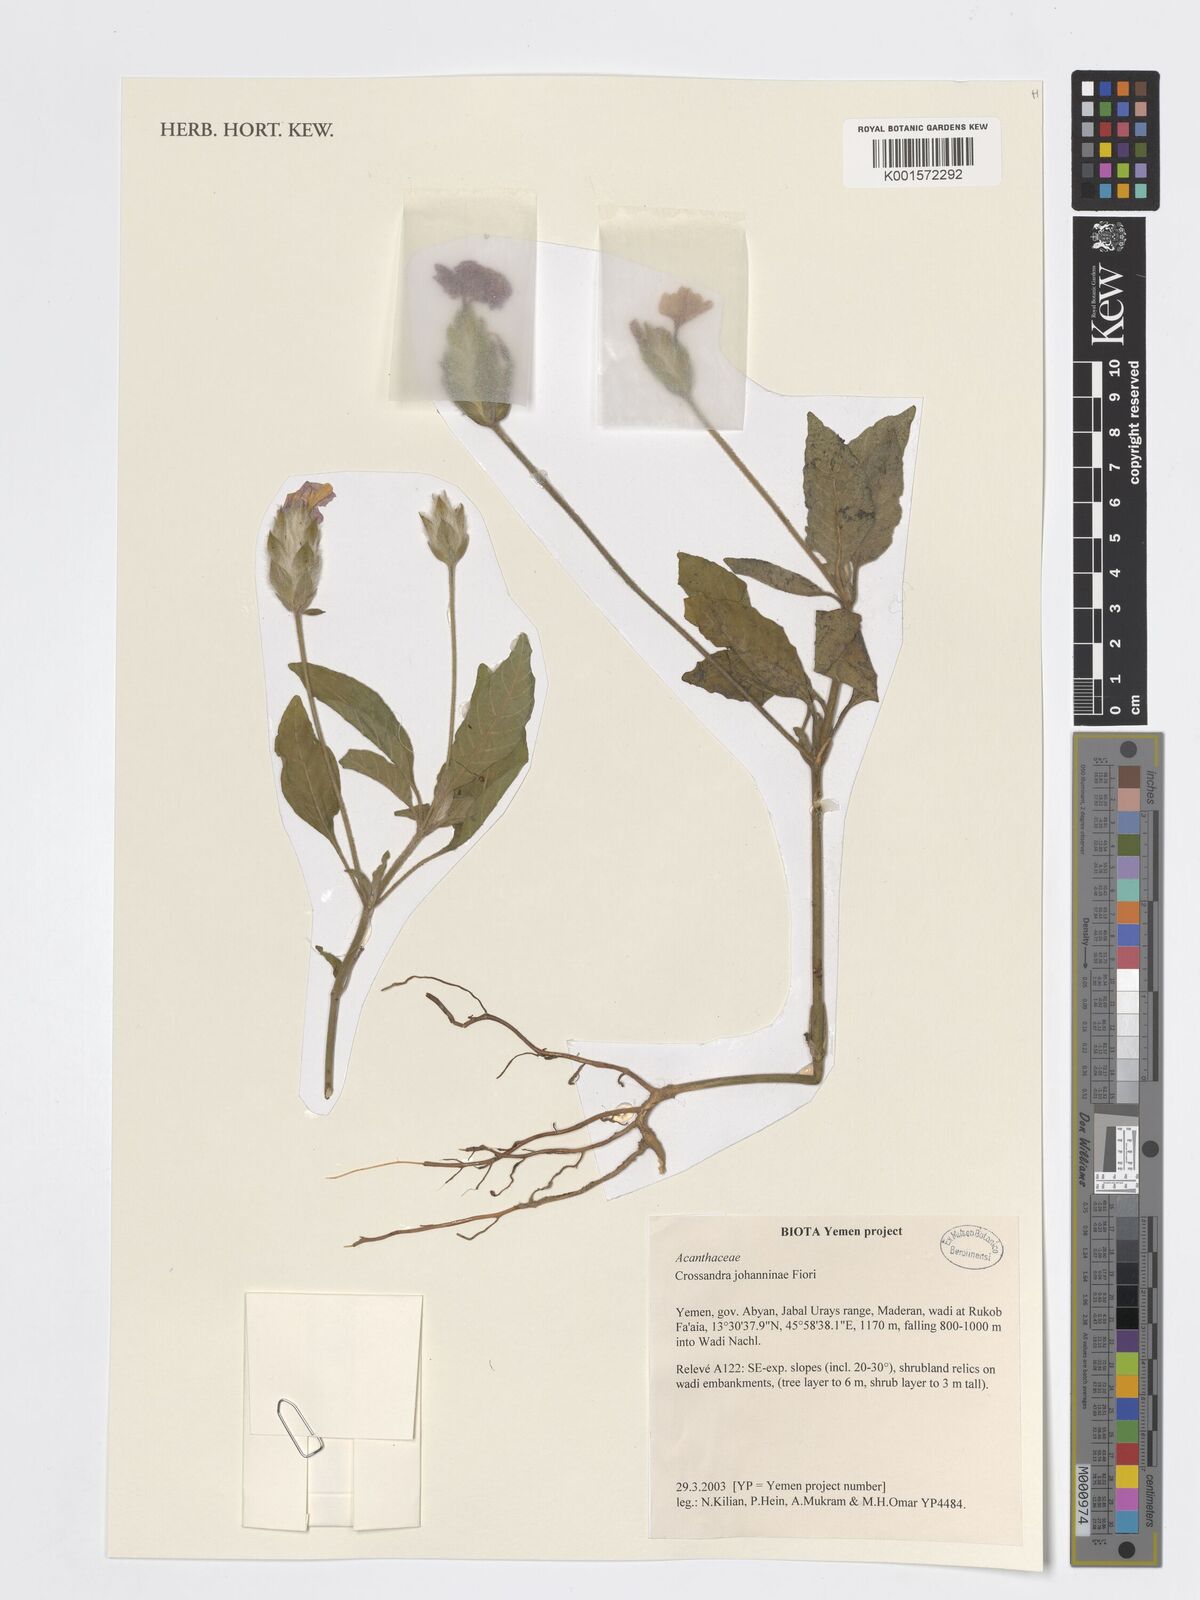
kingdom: Plantae
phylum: Tracheophyta
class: Magnoliopsida
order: Lamiales
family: Acanthaceae
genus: Crossandra
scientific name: Crossandra johanninae
